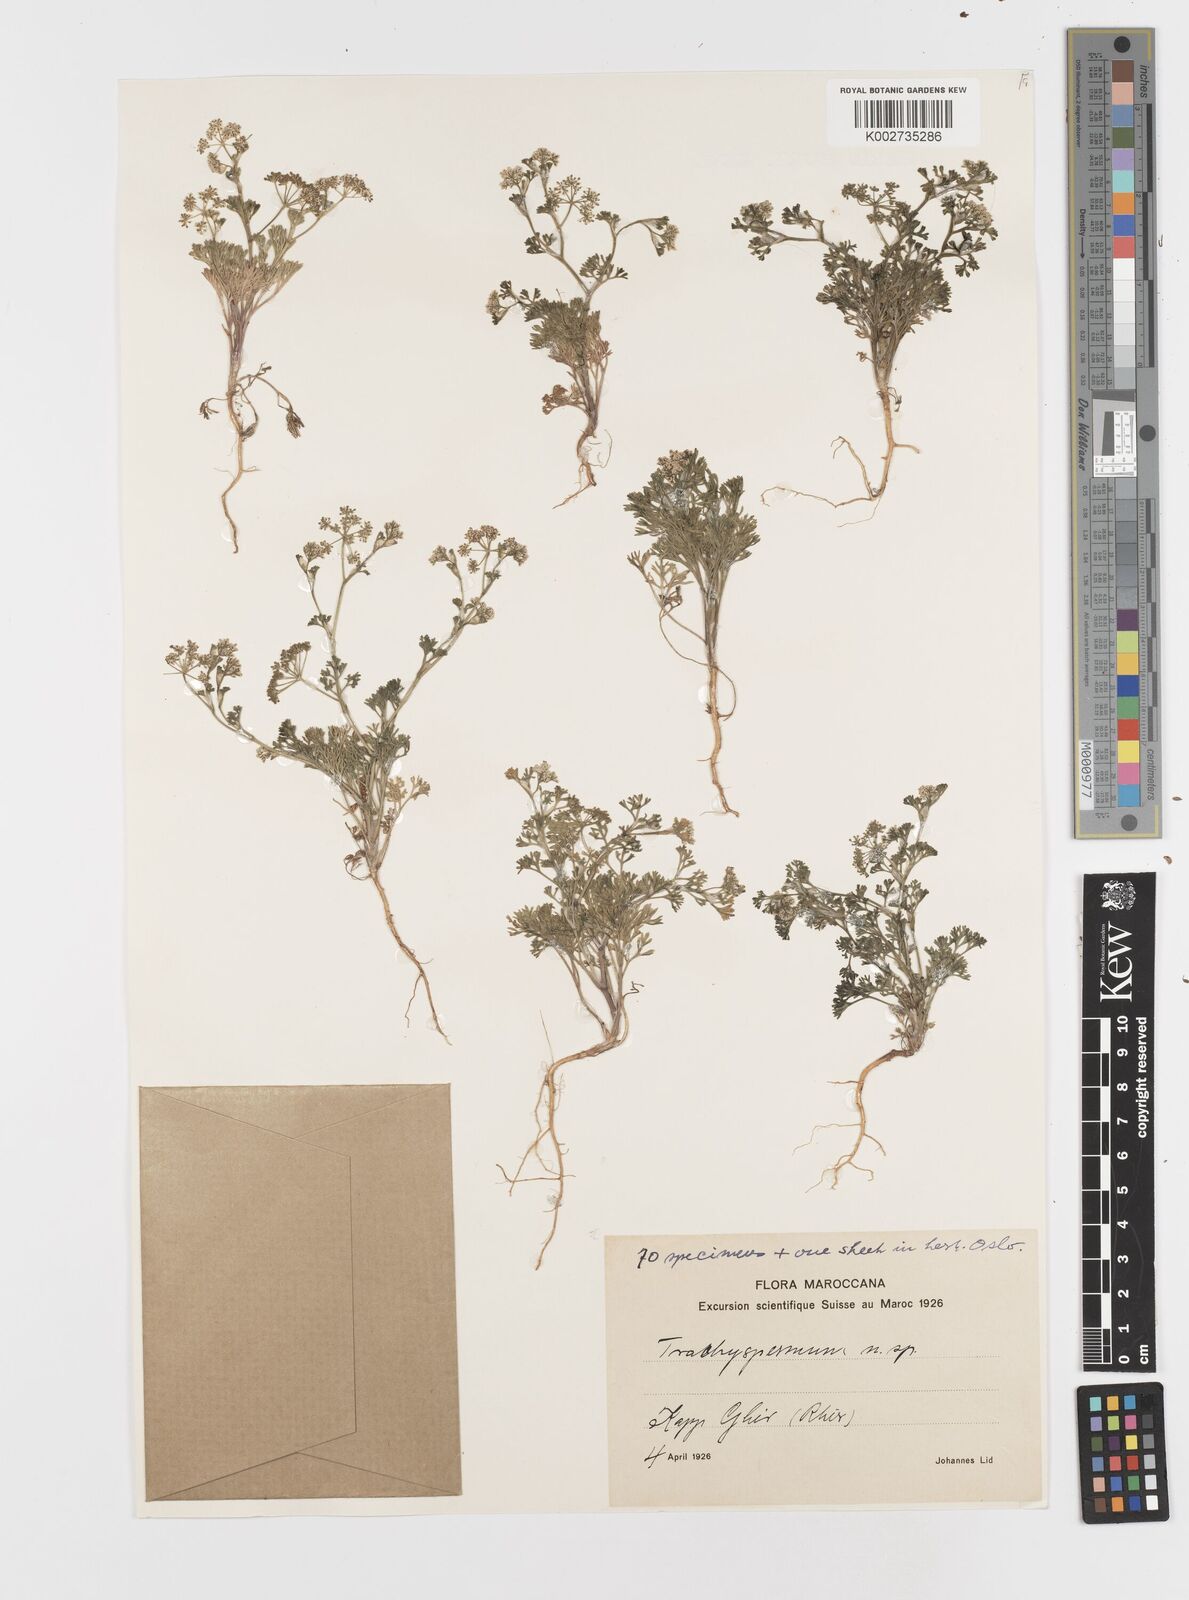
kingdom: Plantae
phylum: Tracheophyta
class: Magnoliopsida
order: Apiales
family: Apiaceae
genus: Trachyspermum
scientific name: Trachyspermum
